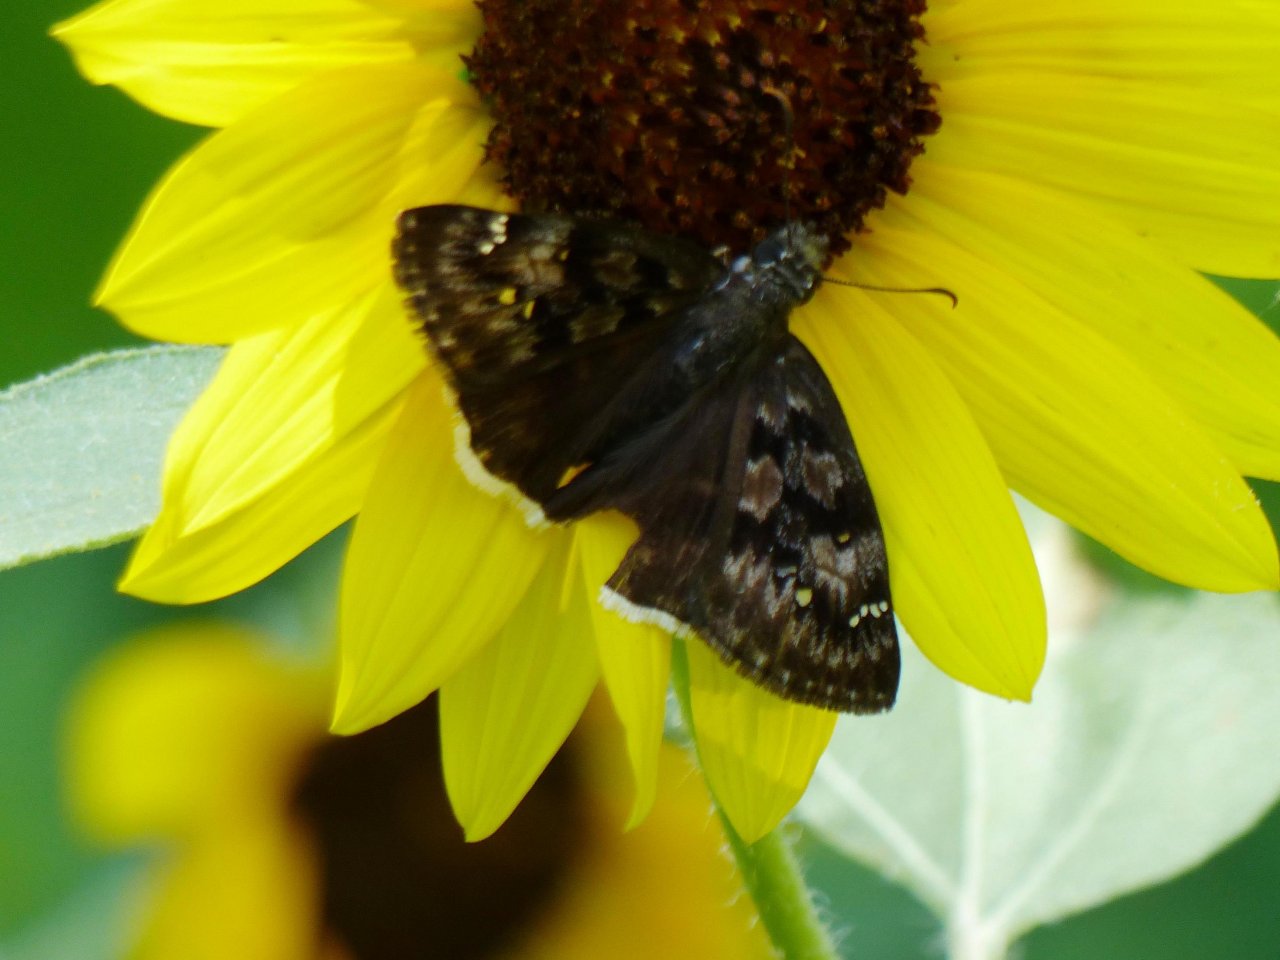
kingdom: Animalia
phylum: Arthropoda
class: Insecta
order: Lepidoptera
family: Hesperiidae
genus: Erynnis
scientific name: Erynnis pacuvius
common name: Pacuvius Duskywing
